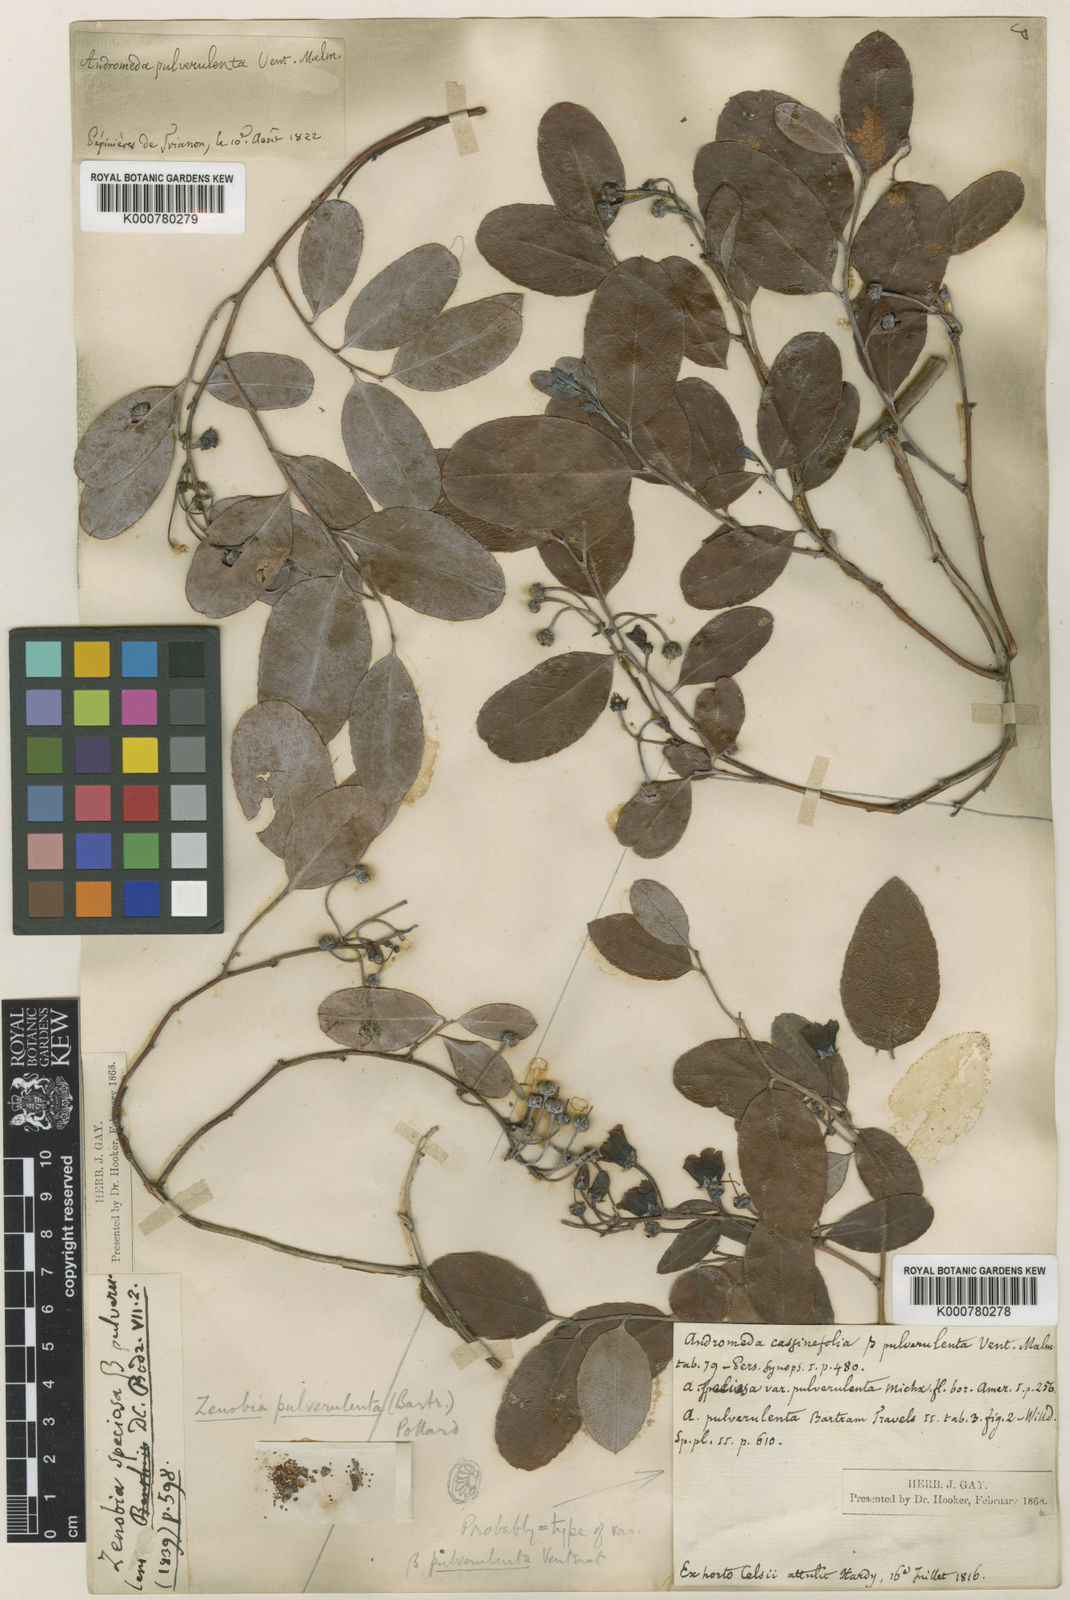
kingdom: Plantae
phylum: Tracheophyta
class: Magnoliopsida
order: Ericales
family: Ericaceae
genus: Zenobia
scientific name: Zenobia pulverulenta
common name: Zenobia
